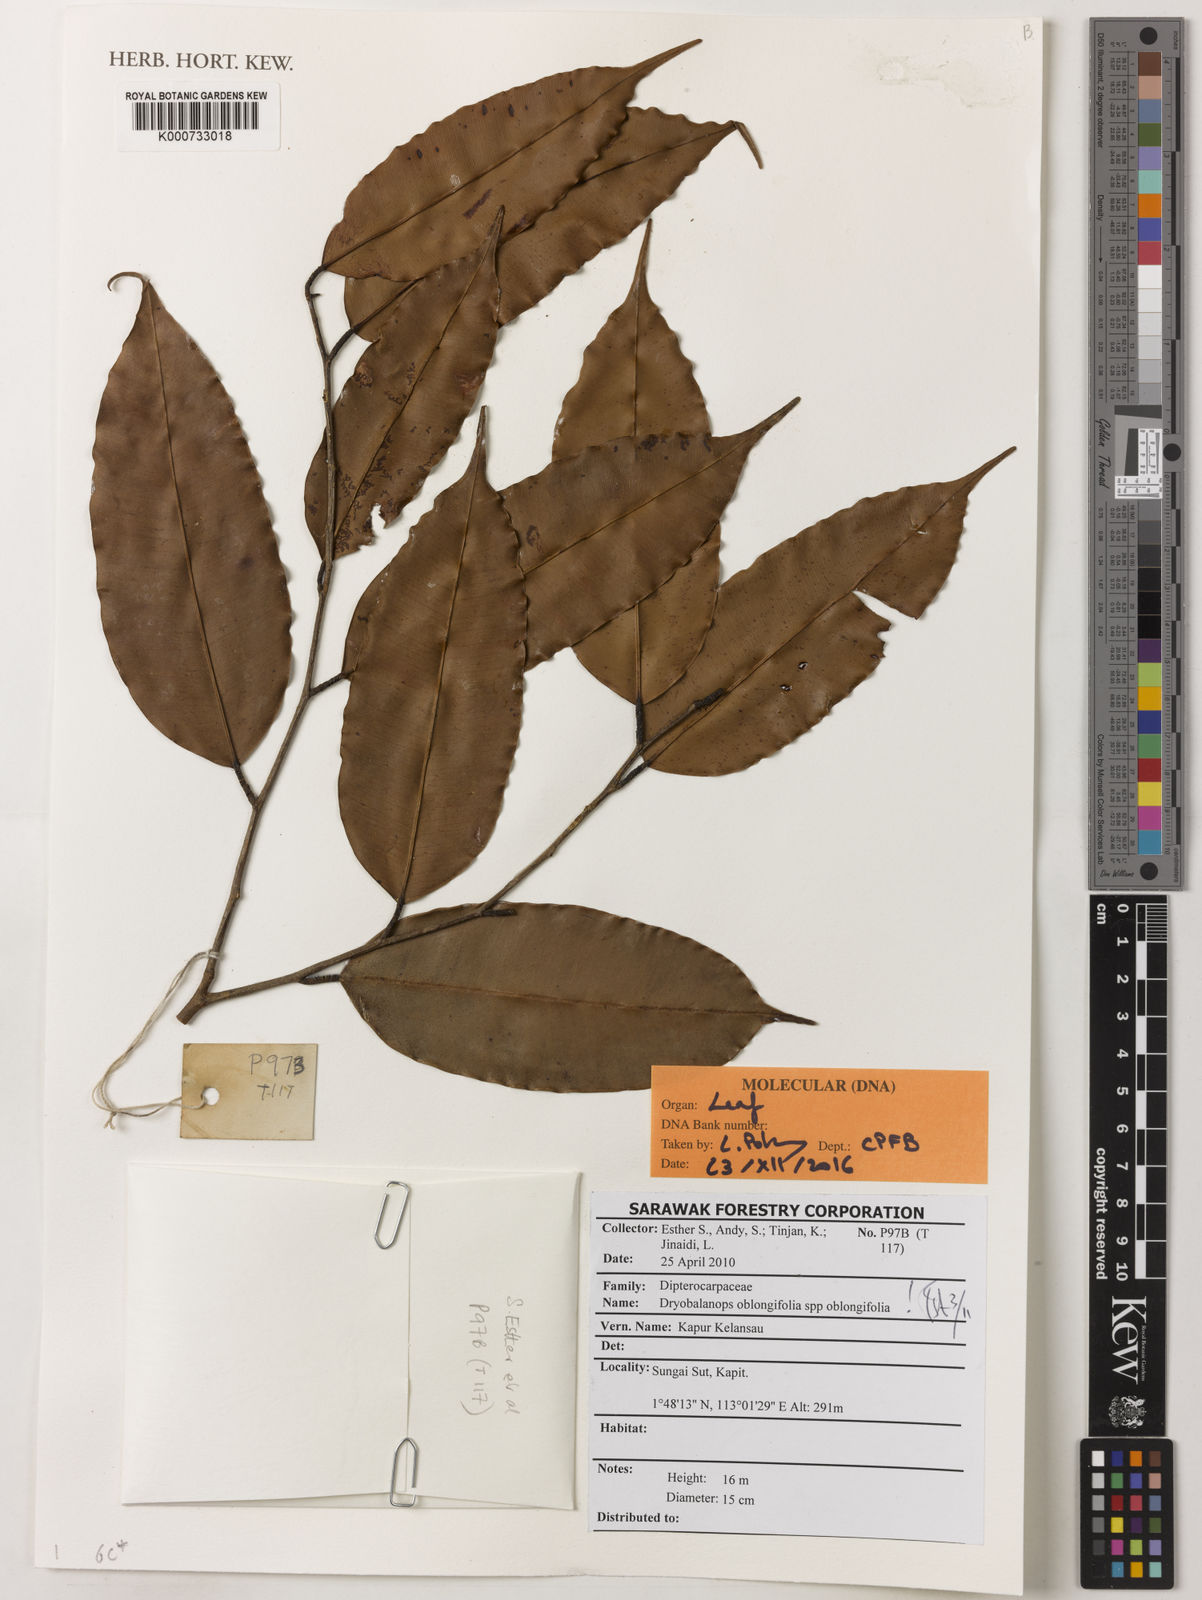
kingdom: Plantae
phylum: Tracheophyta
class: Magnoliopsida
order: Malvales
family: Dipterocarpaceae
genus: Dryobalanops
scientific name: Dryobalanops oblongifolia
